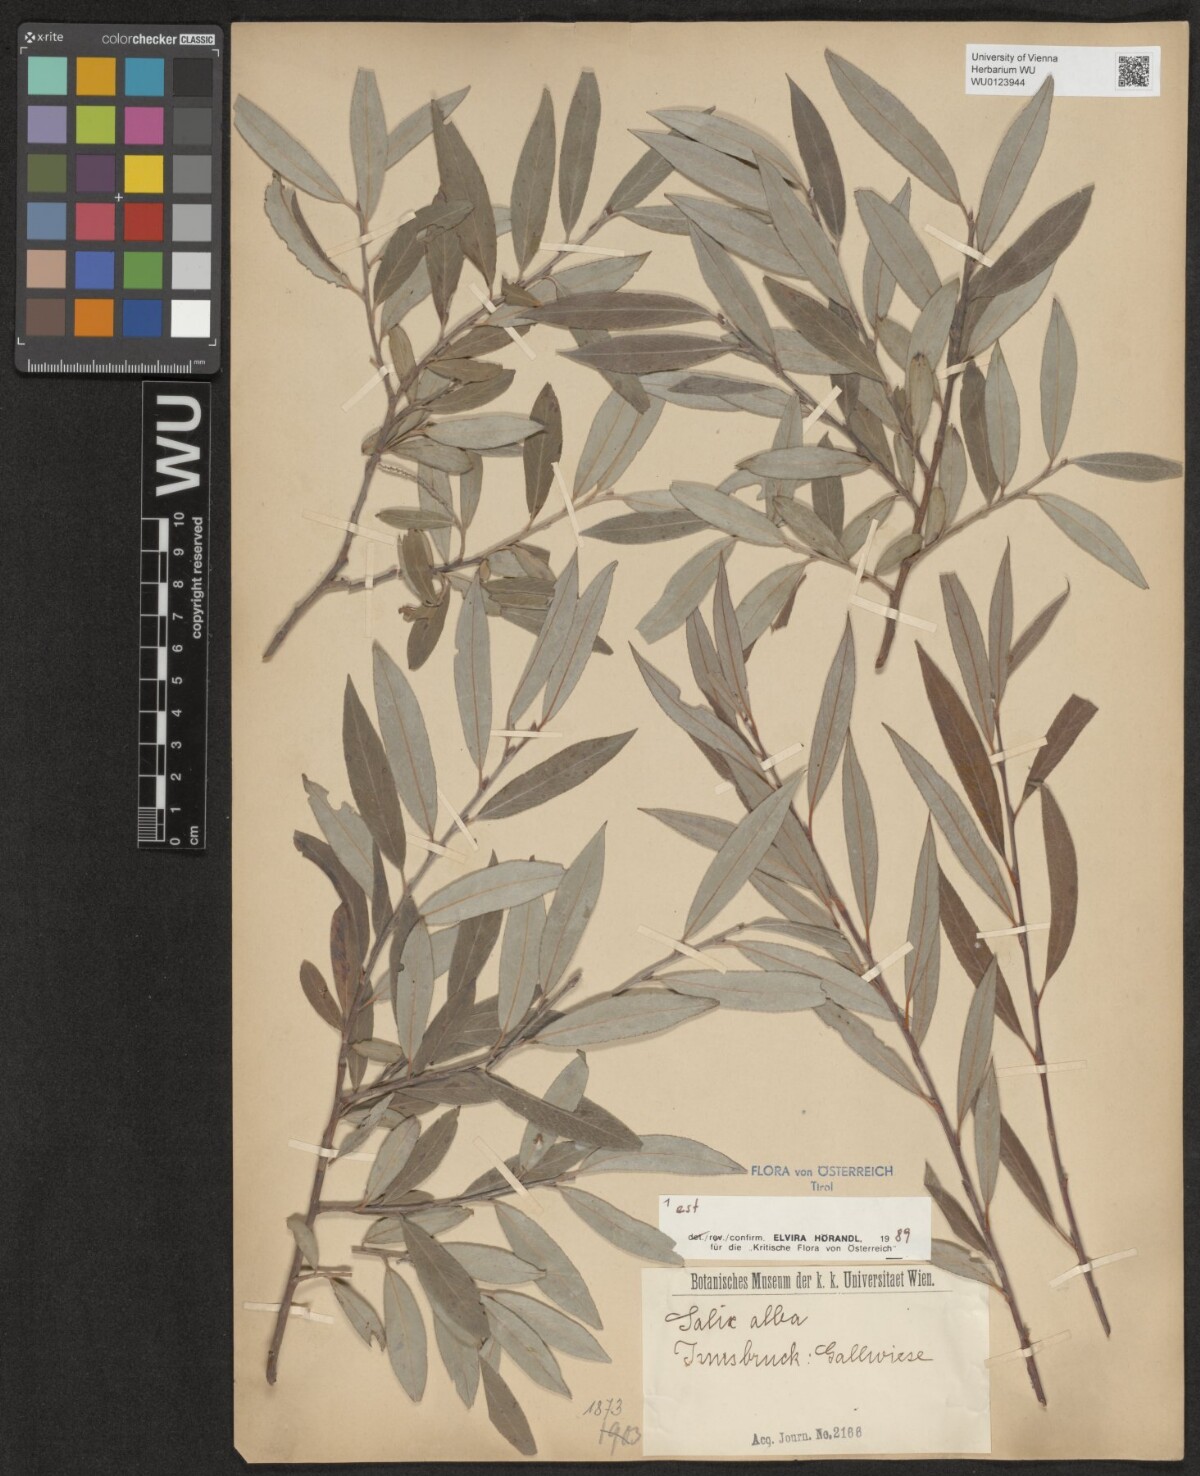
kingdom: Plantae
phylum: Tracheophyta
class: Magnoliopsida
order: Malpighiales
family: Salicaceae
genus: Salix
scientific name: Salix alba
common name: White willow
